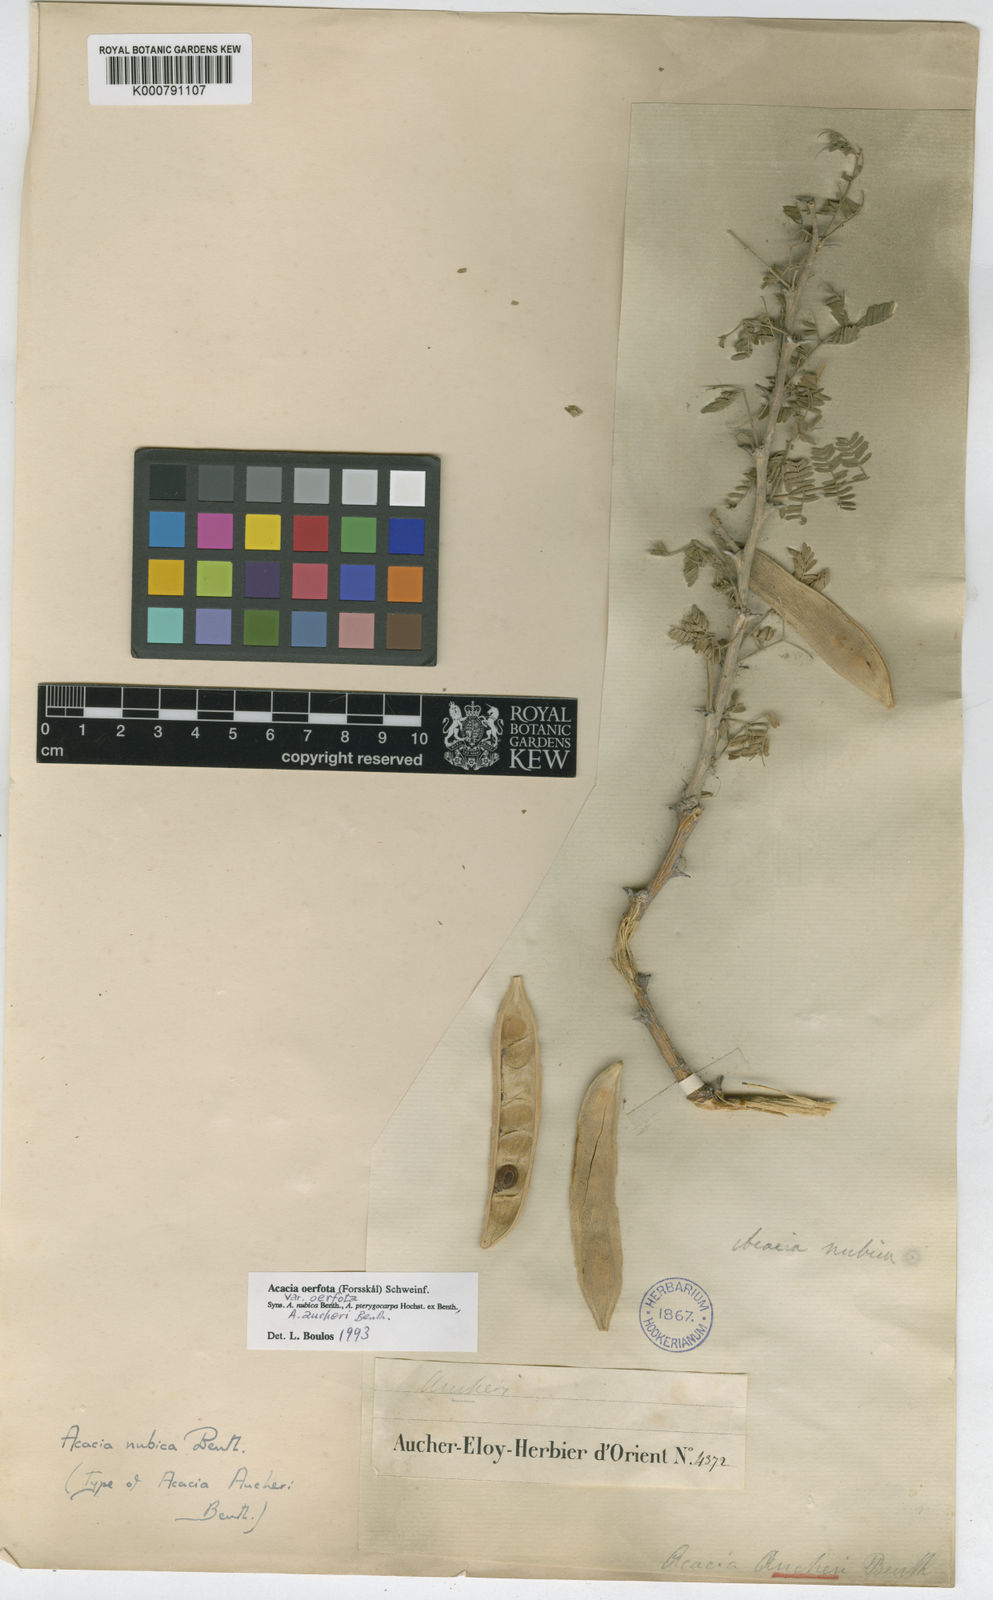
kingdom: Plantae
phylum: Tracheophyta
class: Magnoliopsida
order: Fabales
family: Fabaceae
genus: Acacia
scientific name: Acacia
